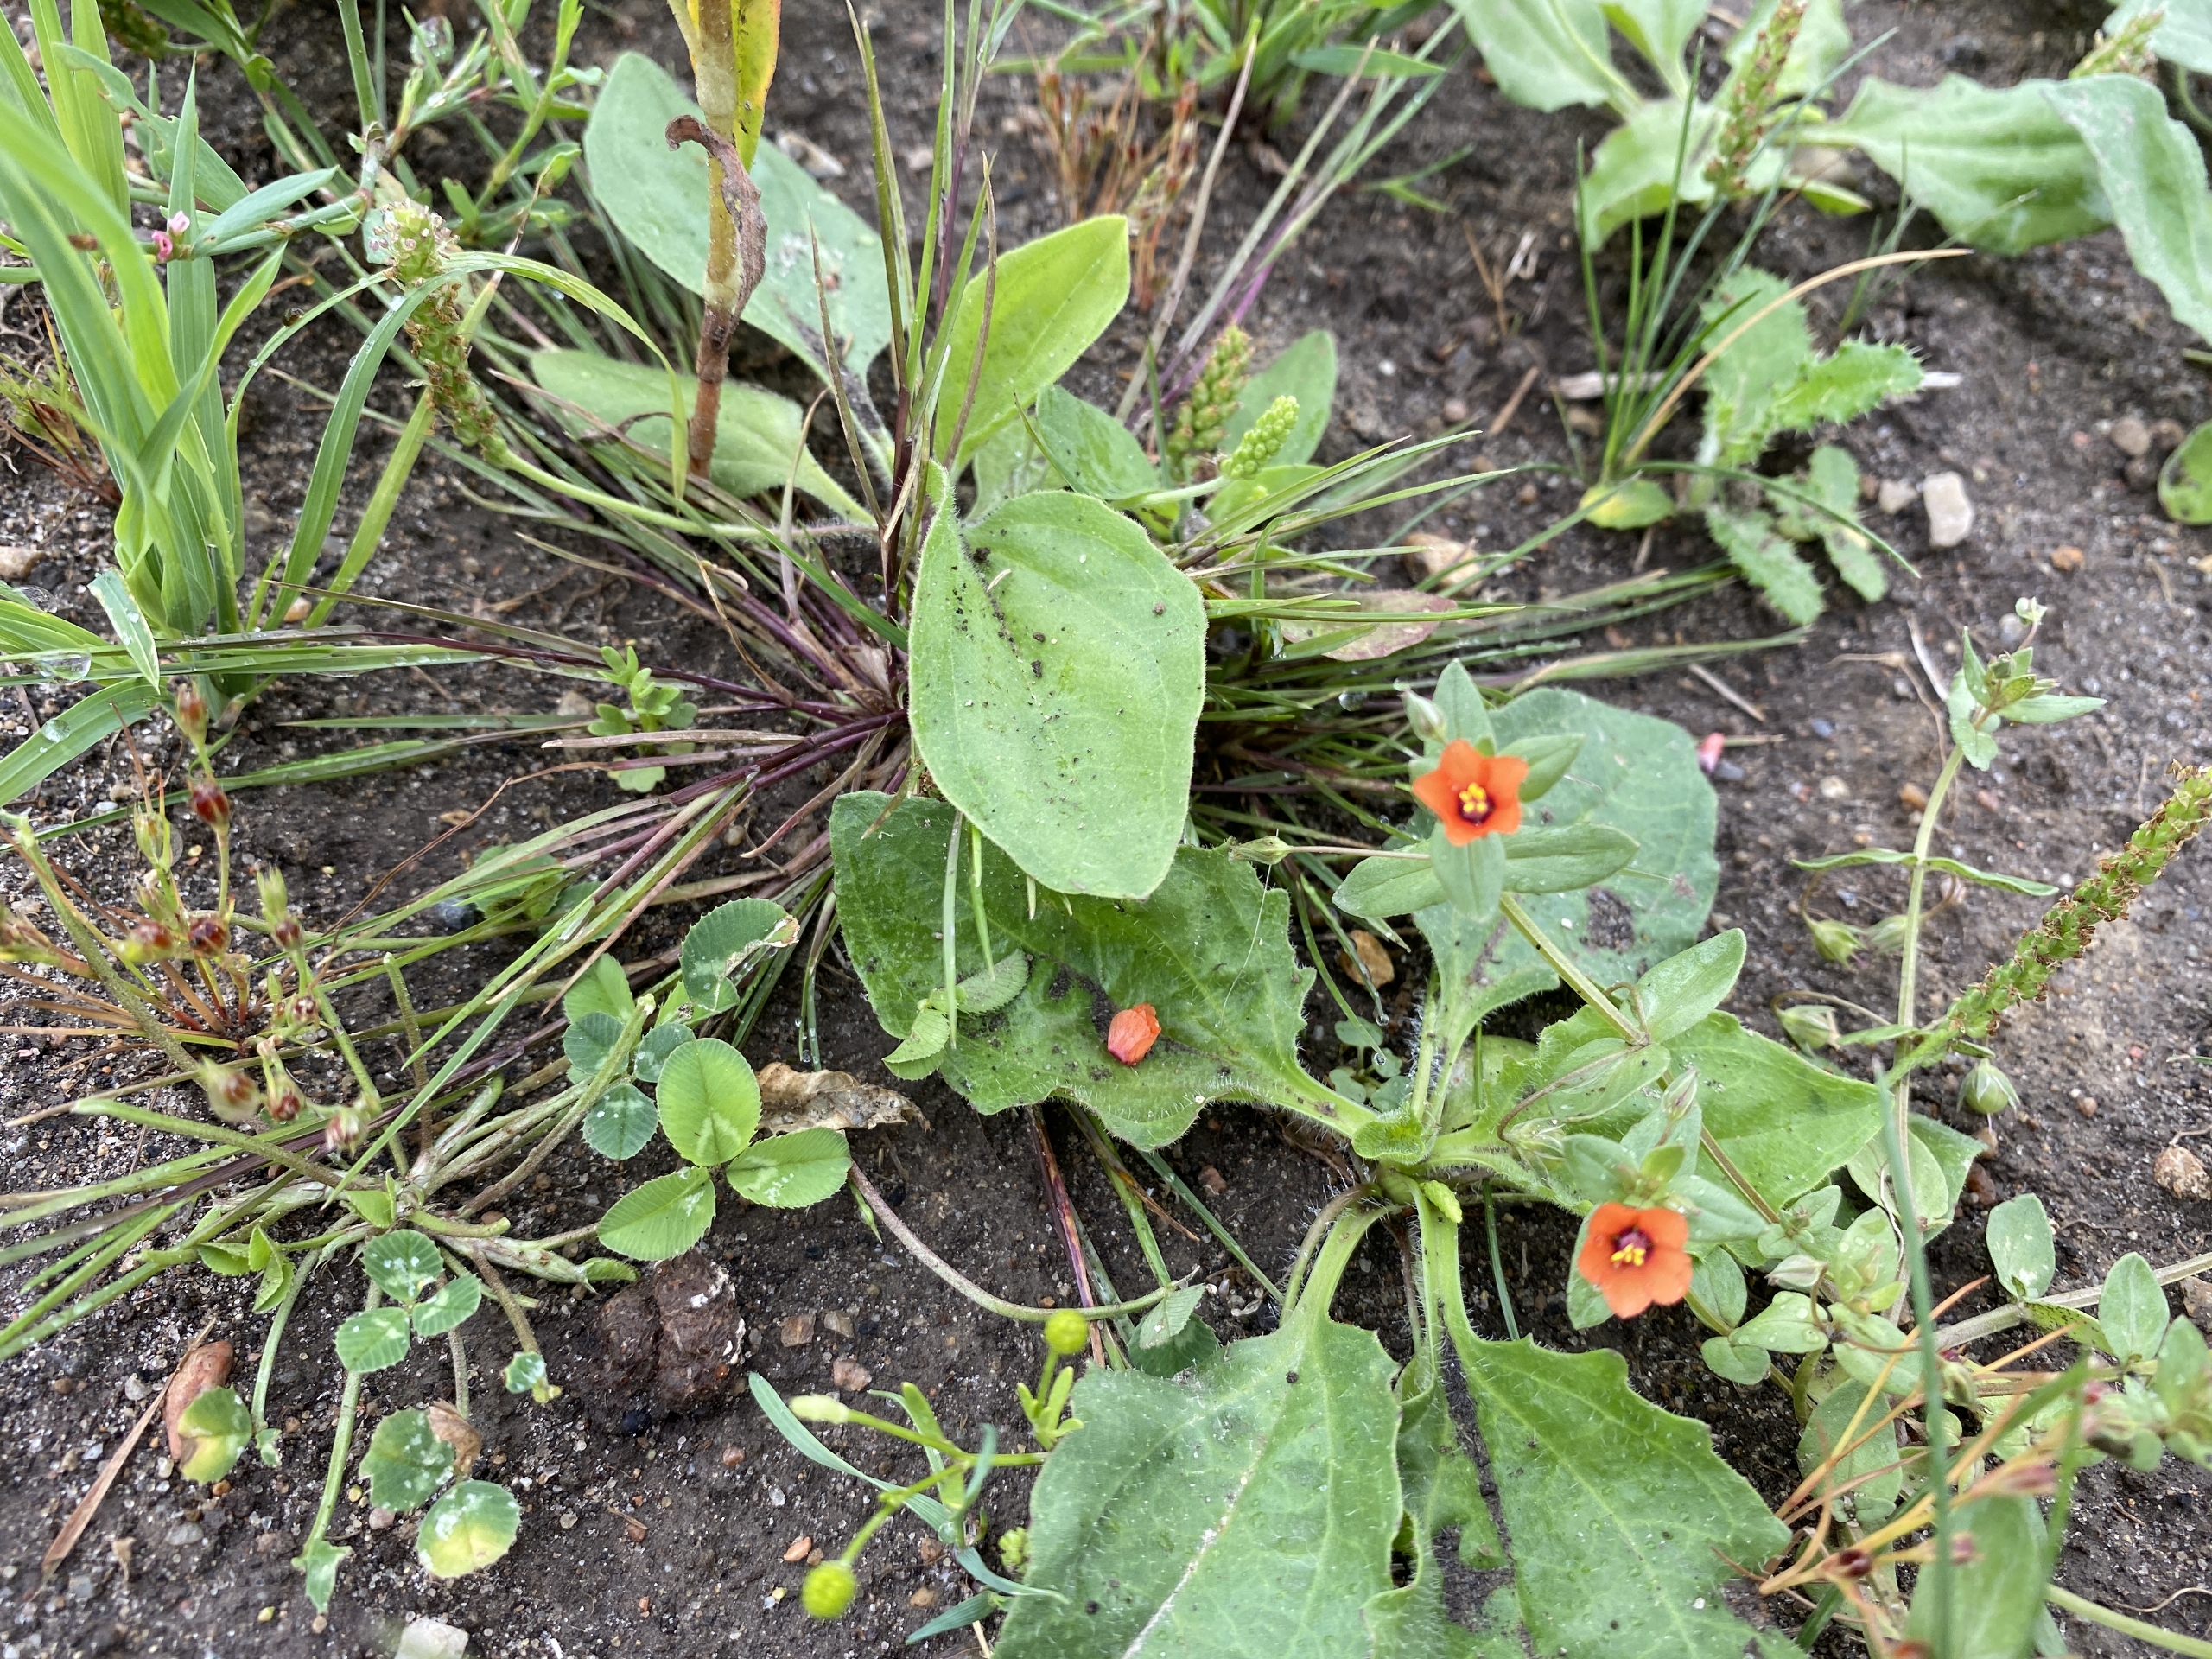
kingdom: Plantae
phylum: Tracheophyta
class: Magnoliopsida
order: Ericales
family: Primulaceae
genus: Lysimachia
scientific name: Lysimachia arvensis
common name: Rød arve
